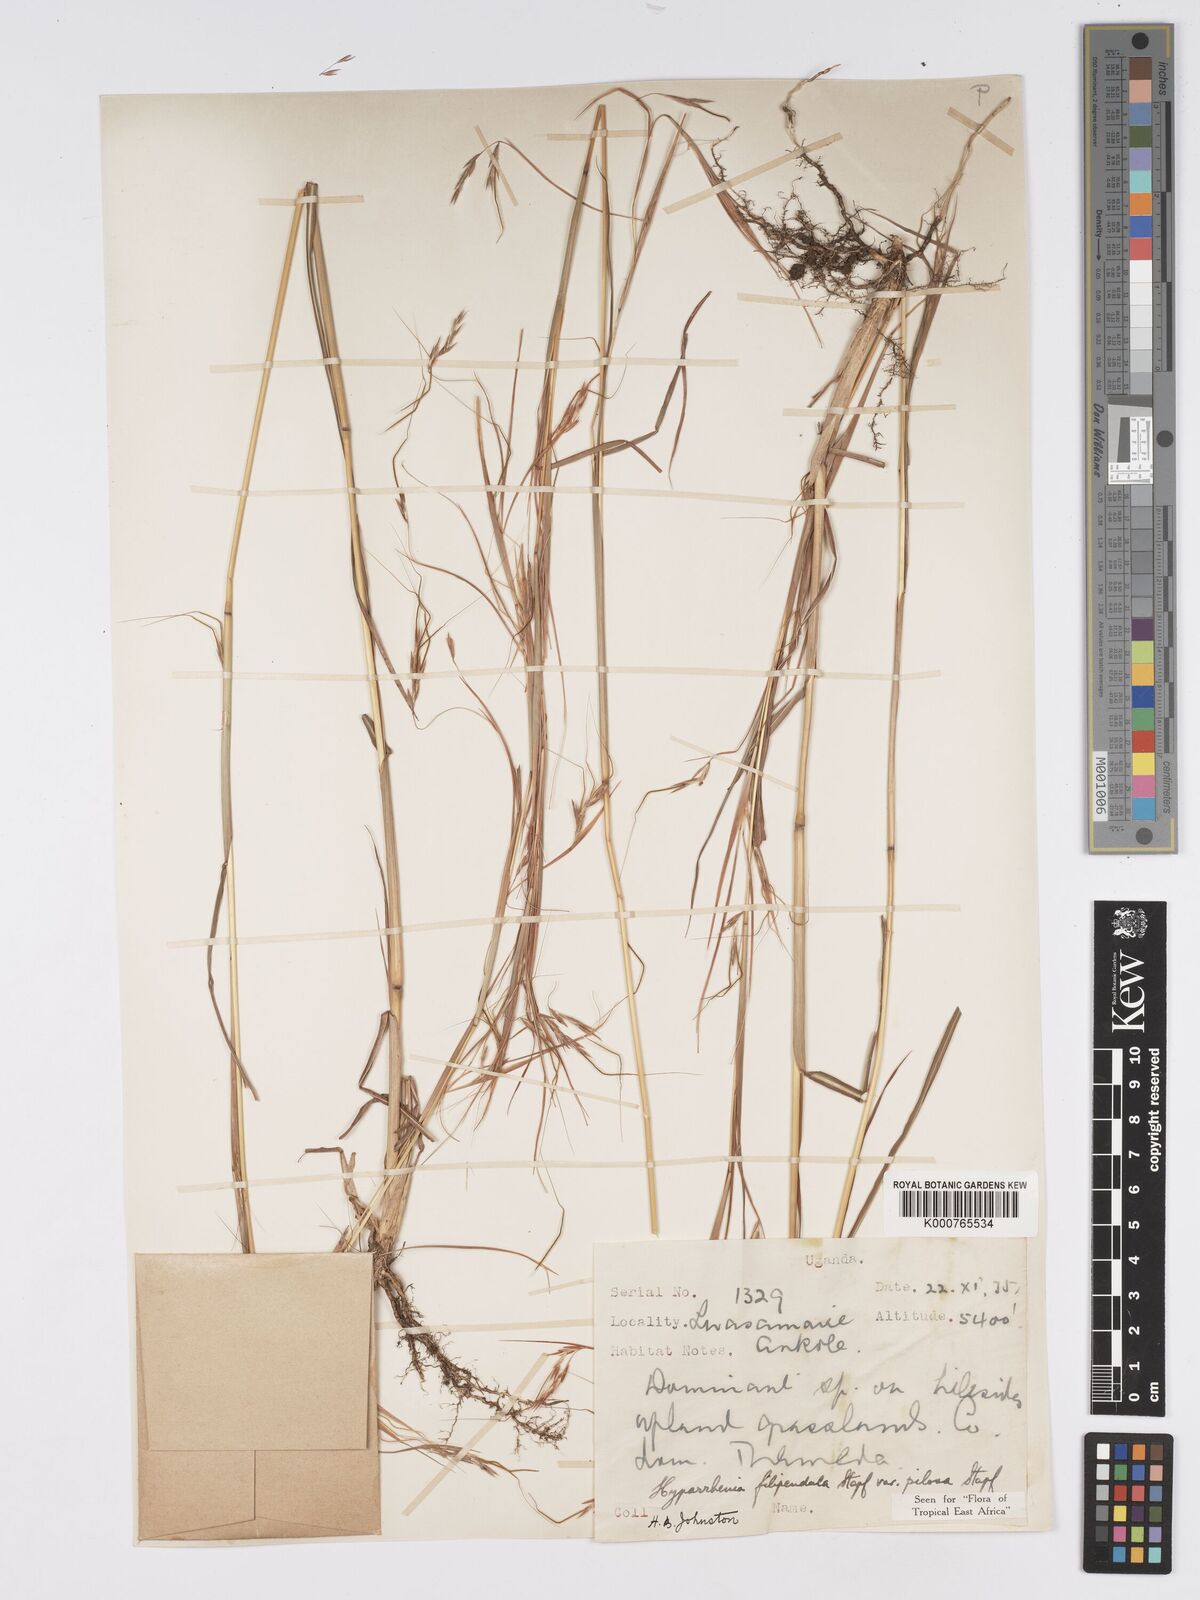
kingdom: Plantae
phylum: Tracheophyta
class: Liliopsida
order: Poales
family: Poaceae
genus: Hyparrhenia
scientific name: Hyparrhenia filipendula
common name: Tambookie grass
